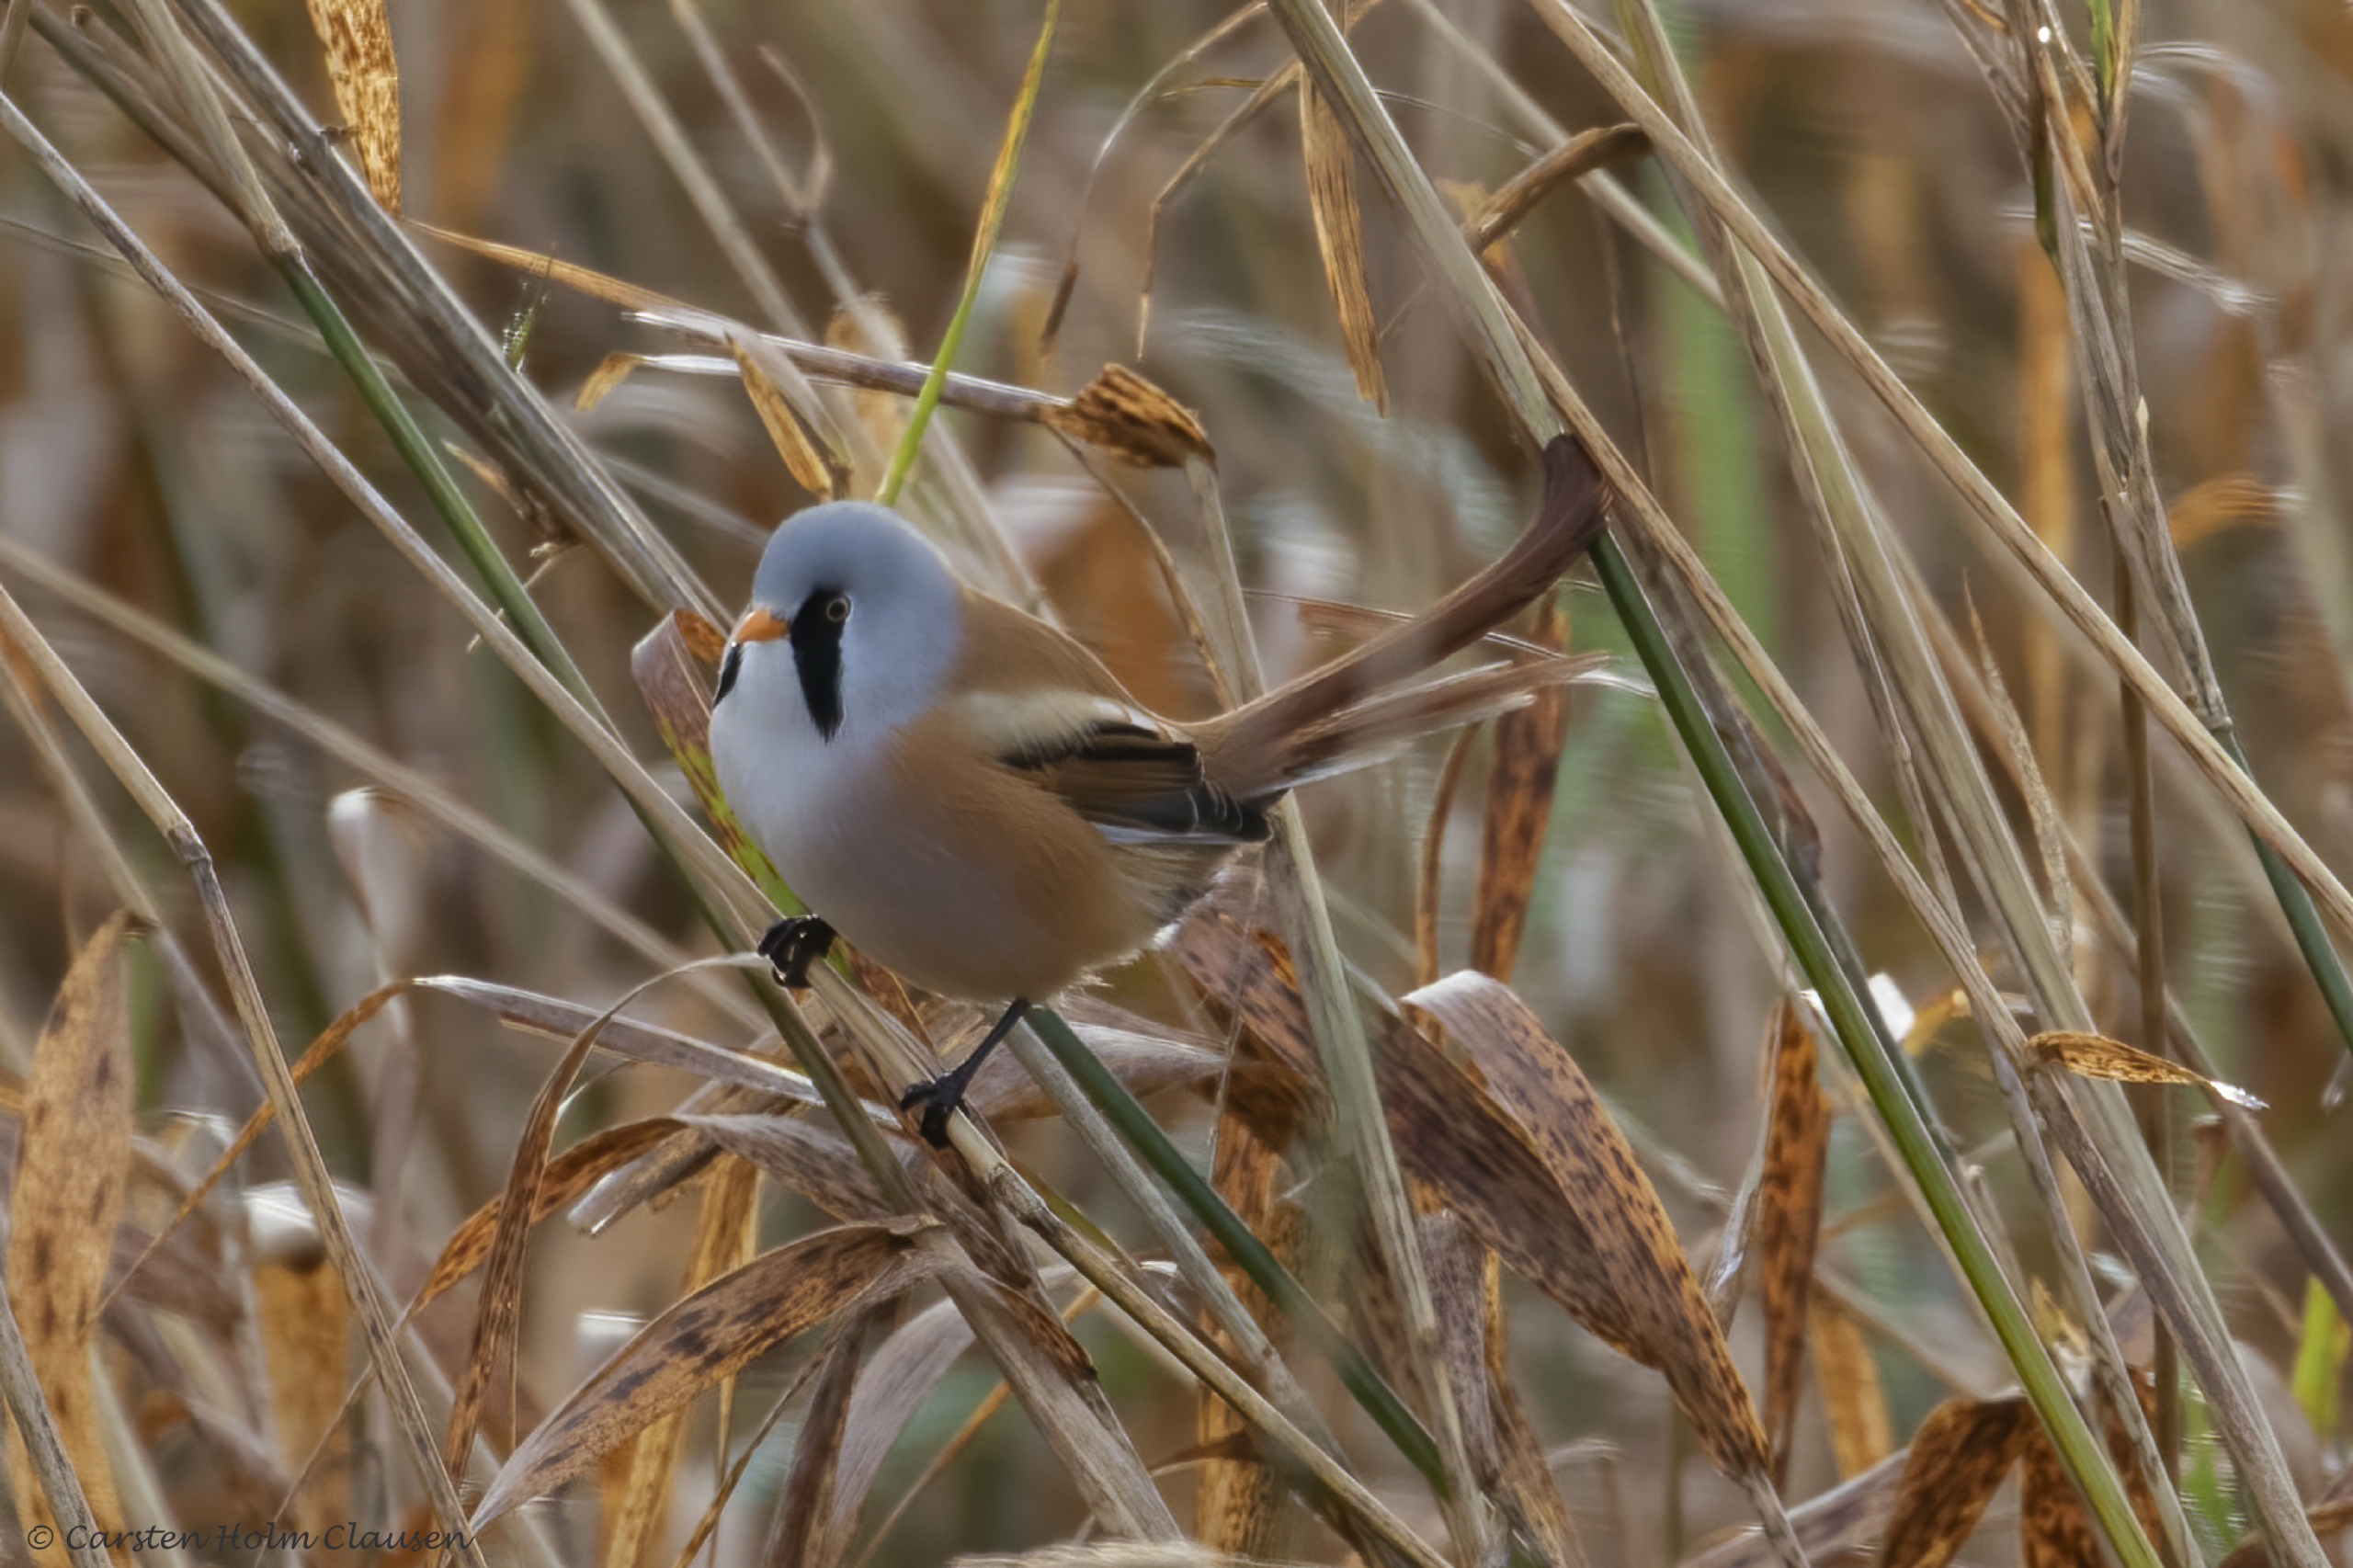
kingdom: Animalia
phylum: Chordata
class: Aves
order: Passeriformes
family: Panuridae
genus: Panurus
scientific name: Panurus biarmicus
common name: Skægmejse
